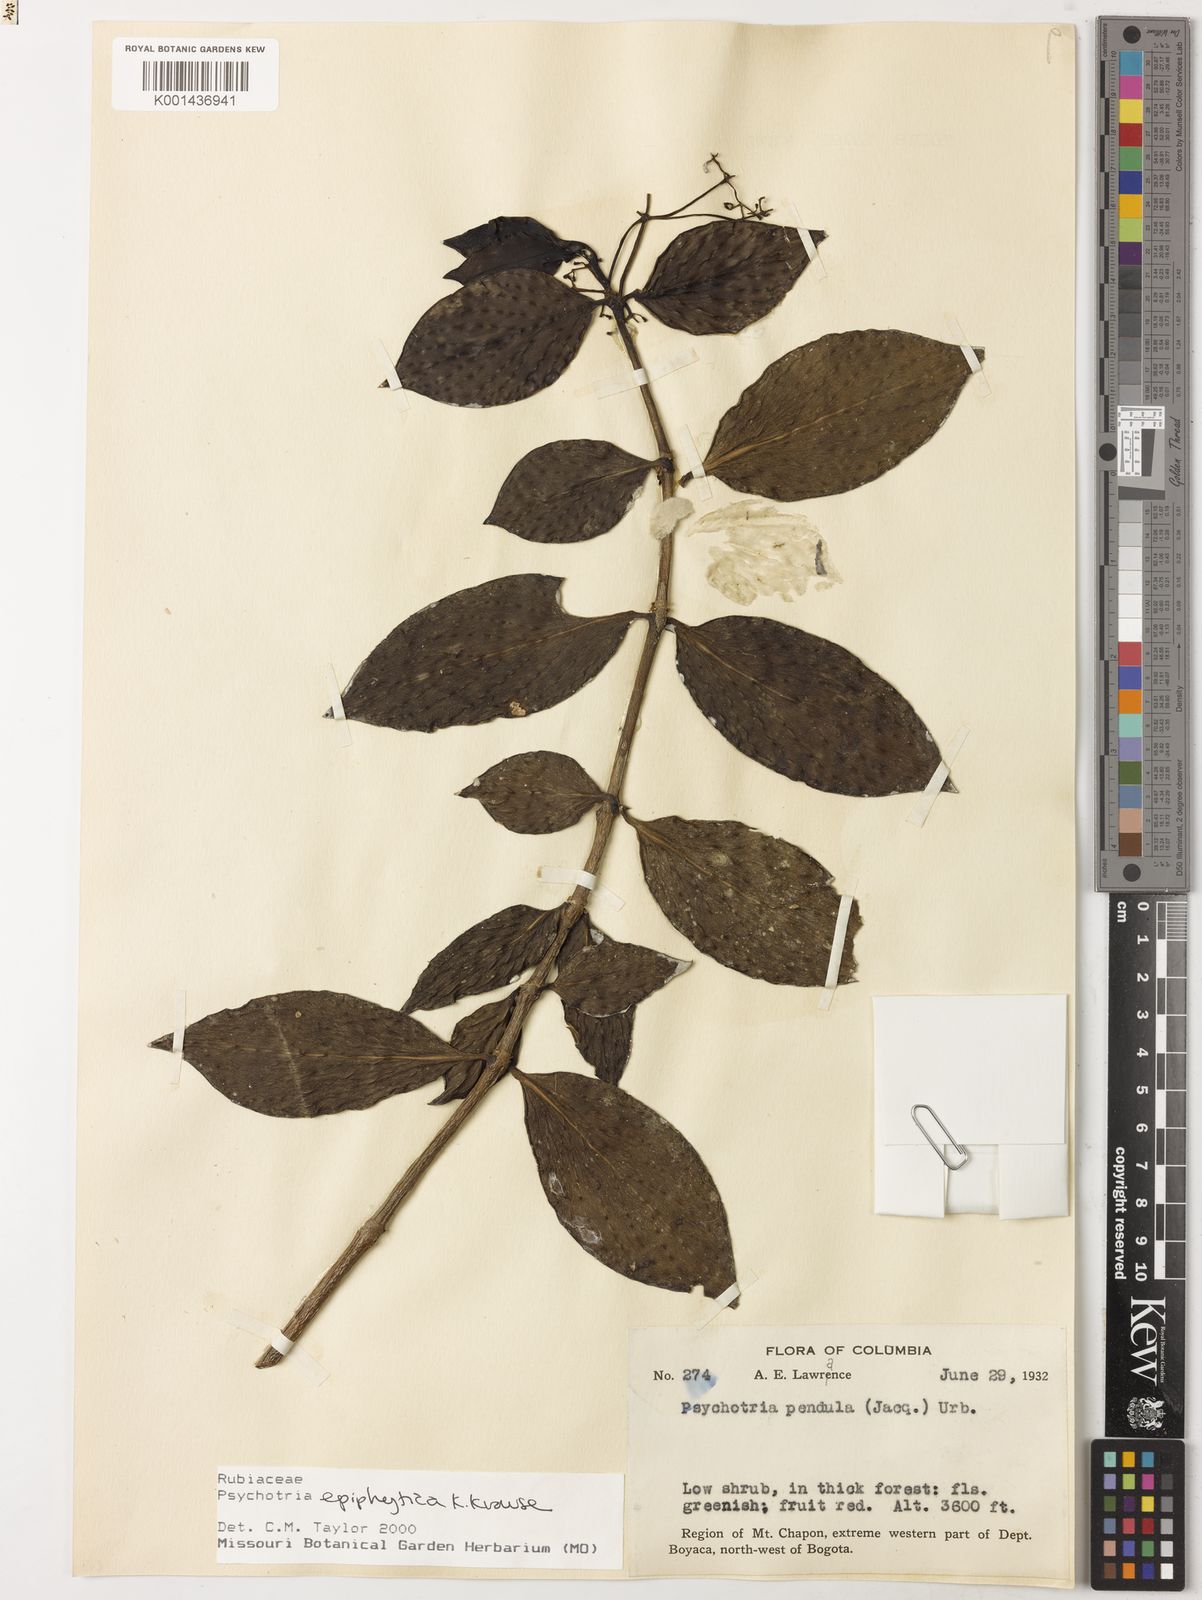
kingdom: Plantae
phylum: Tracheophyta
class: Magnoliopsida
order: Gentianales
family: Rubiaceae
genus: Notopleura
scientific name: Notopleura epiphytica
